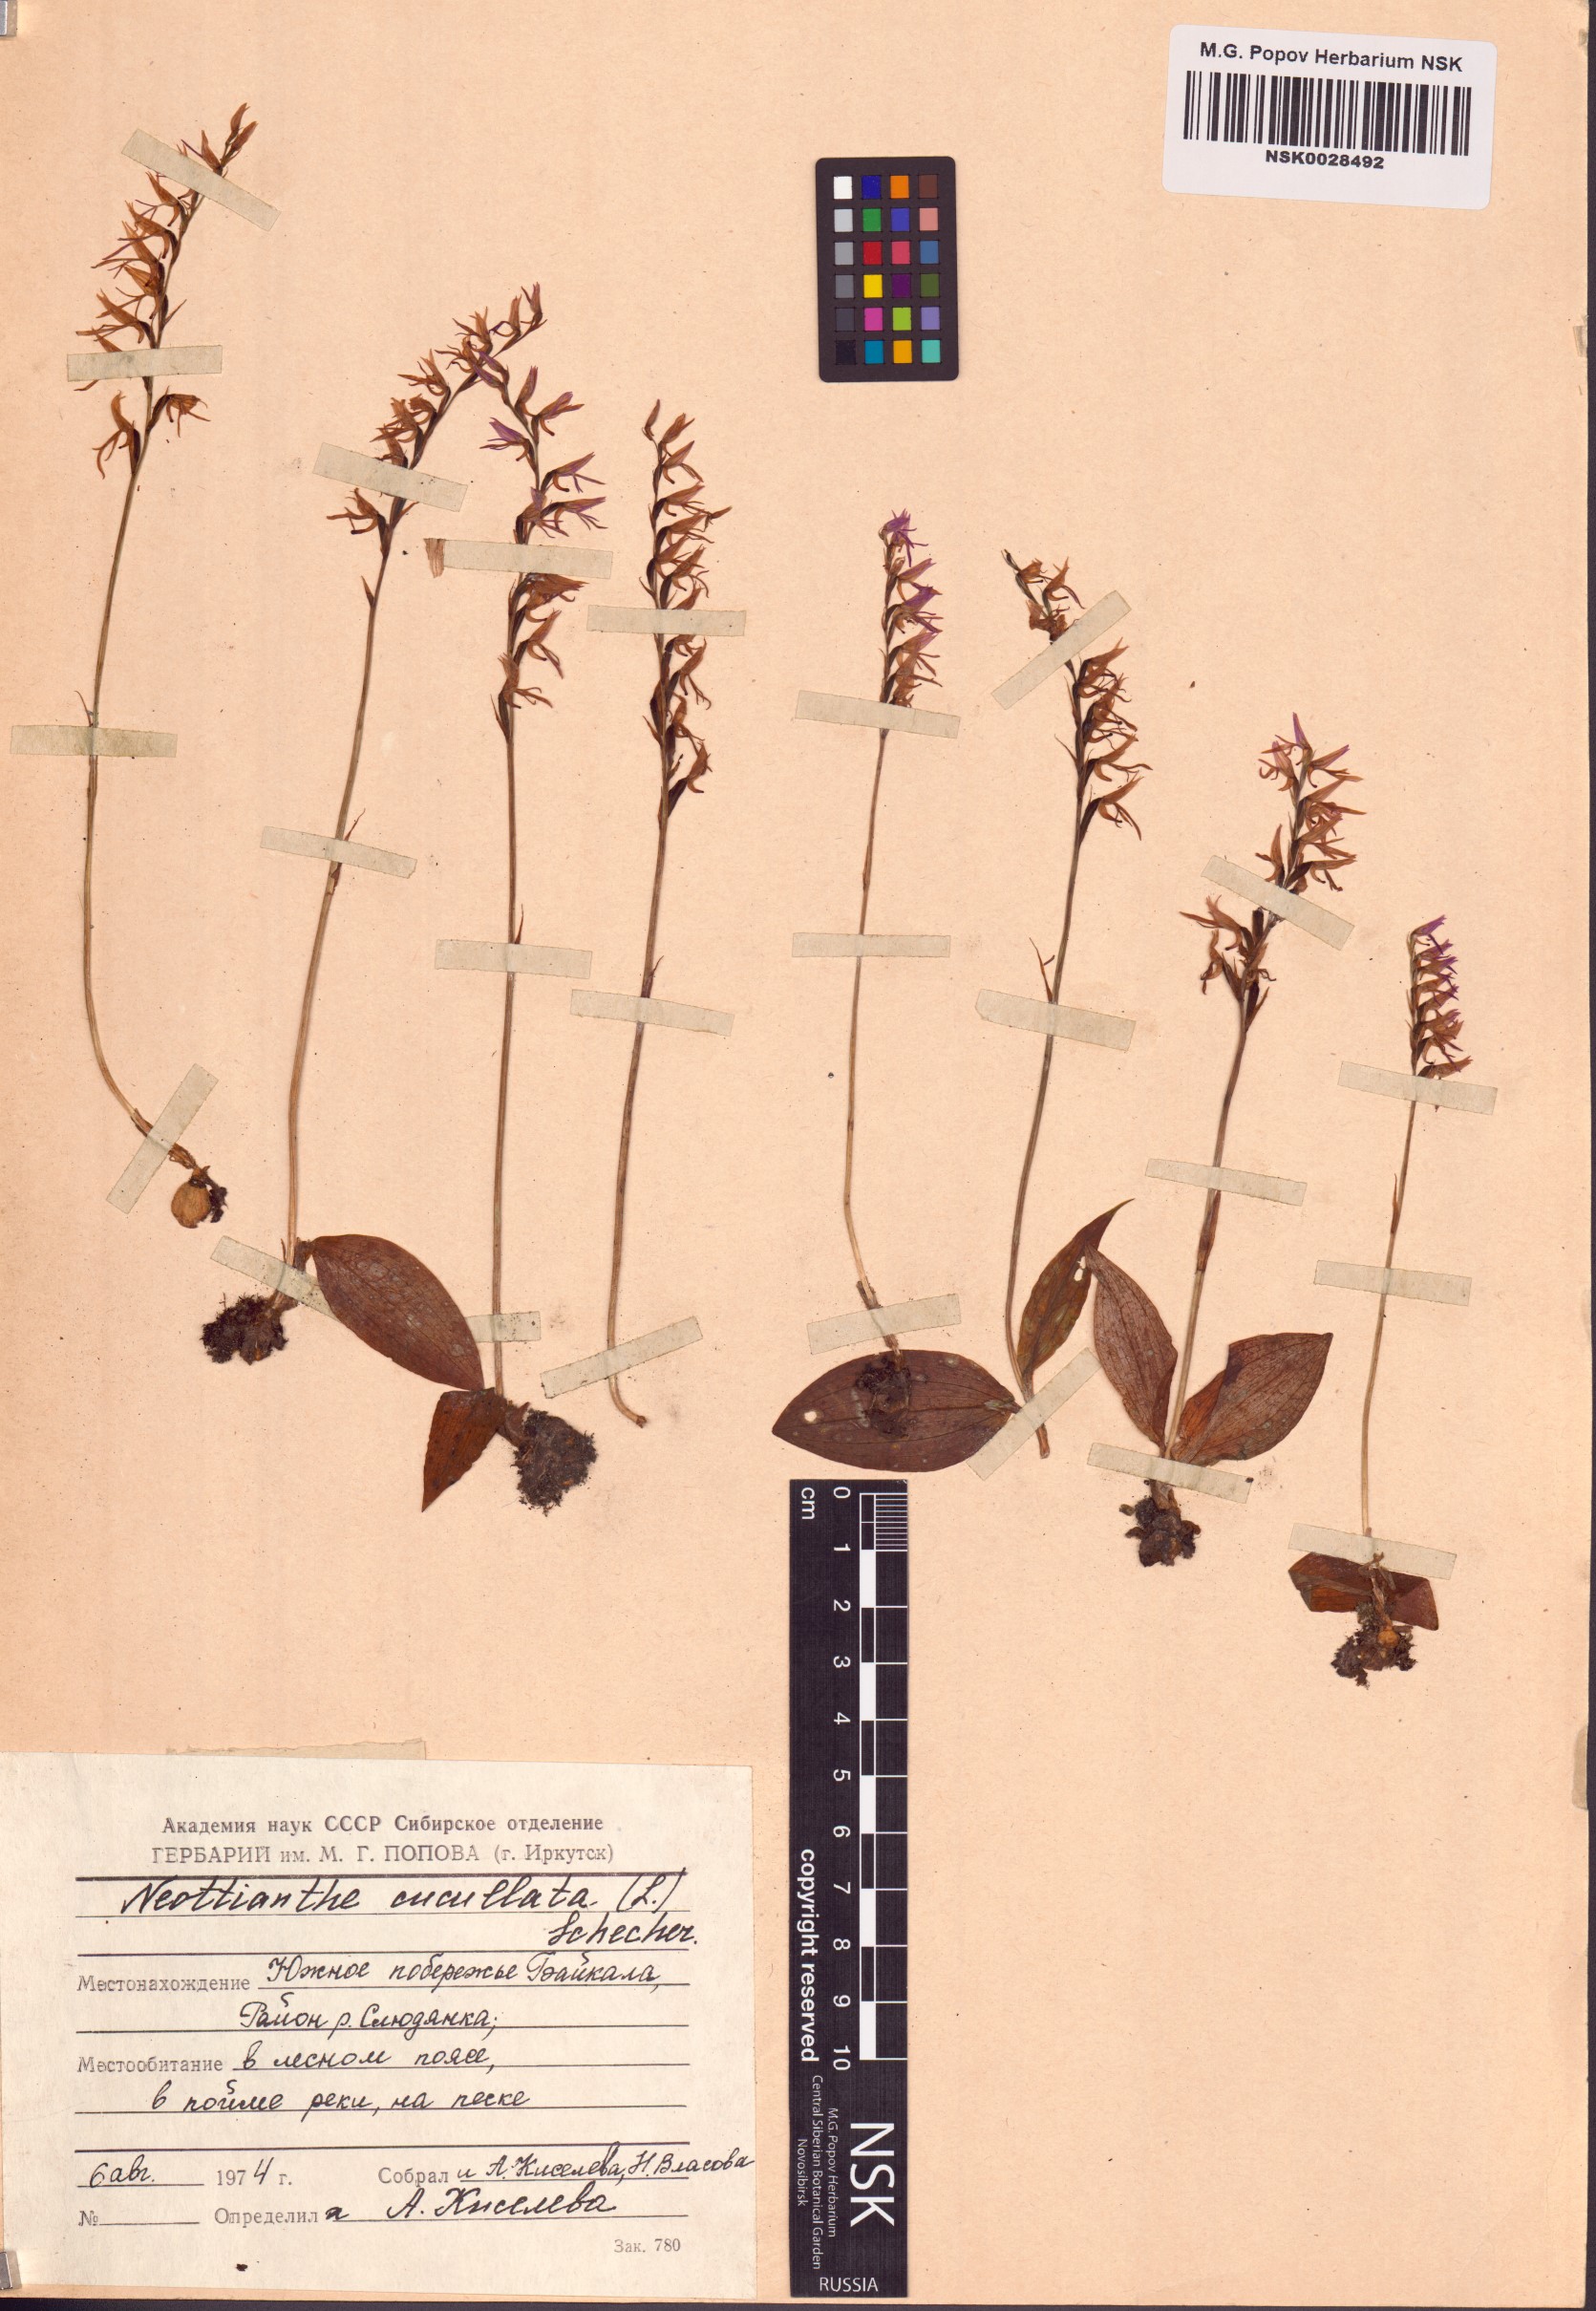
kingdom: Plantae
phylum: Tracheophyta
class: Liliopsida
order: Asparagales
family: Orchidaceae
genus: Hemipilia
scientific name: Hemipilia cucullata
